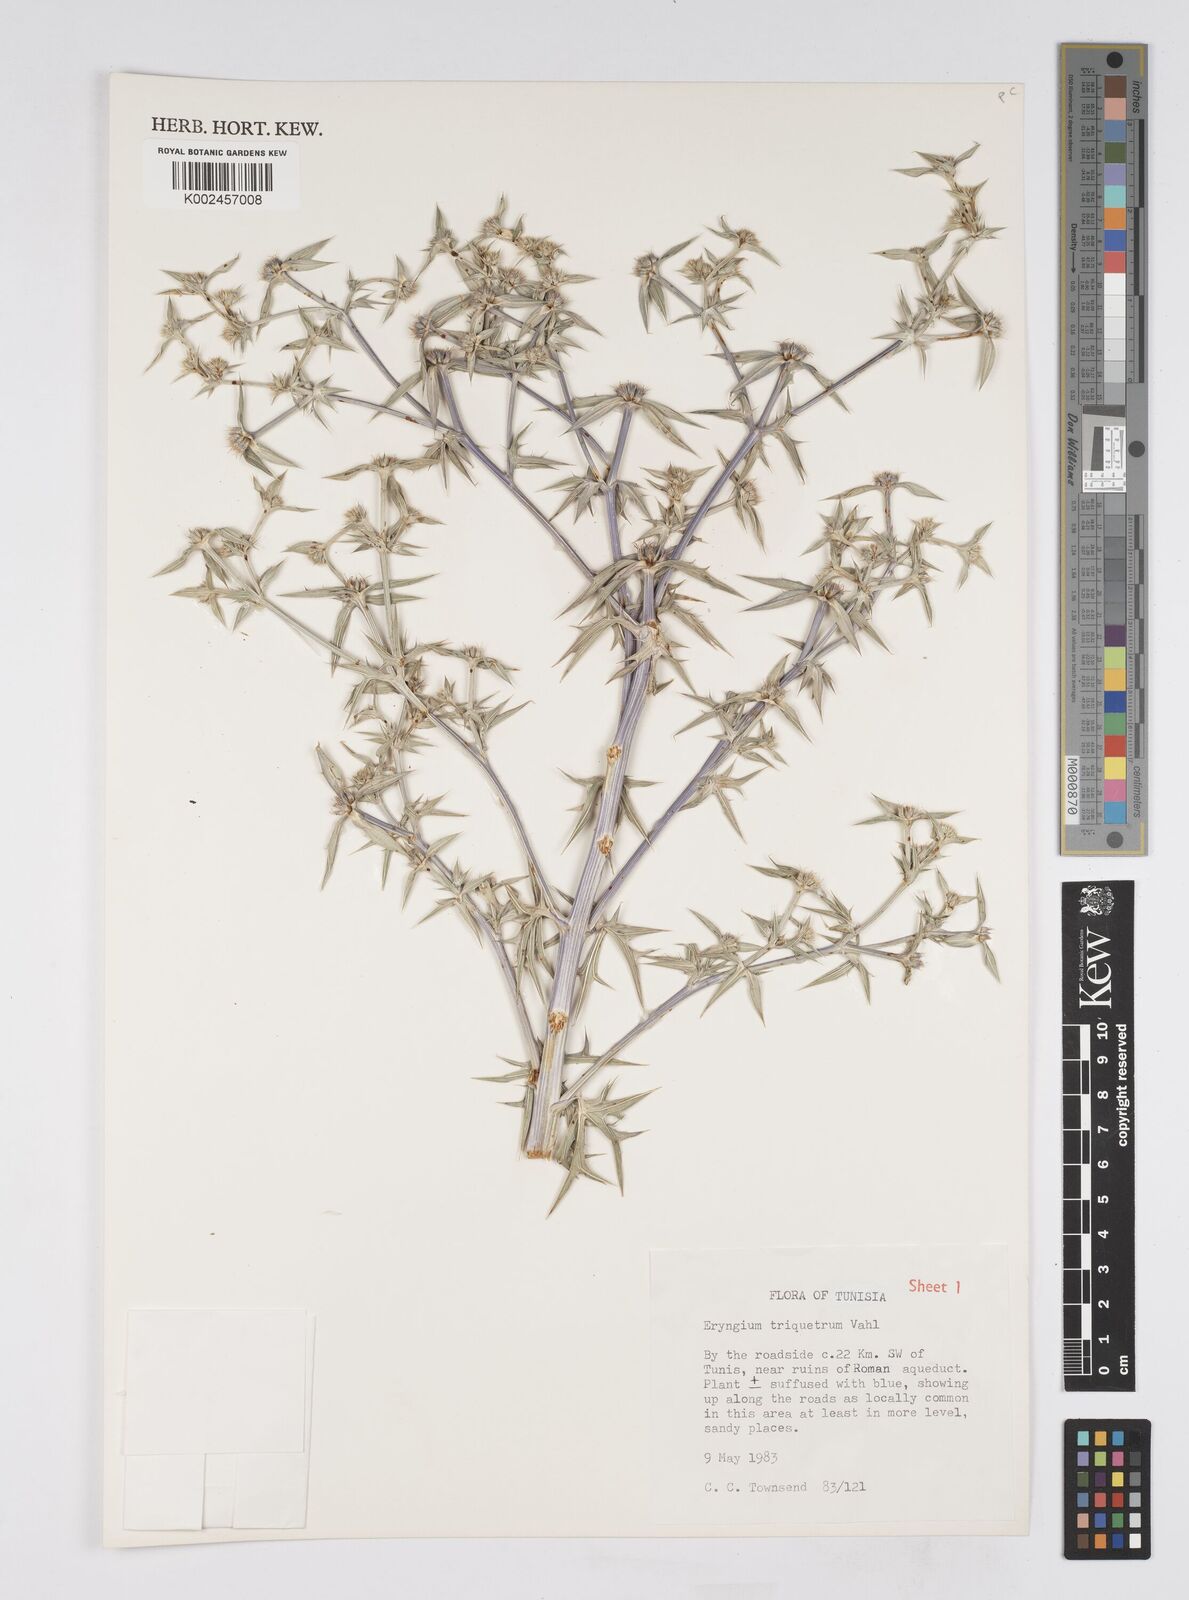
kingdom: Plantae
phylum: Tracheophyta
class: Magnoliopsida
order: Apiales
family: Apiaceae
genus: Eryngium
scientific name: Eryngium triquetrum
